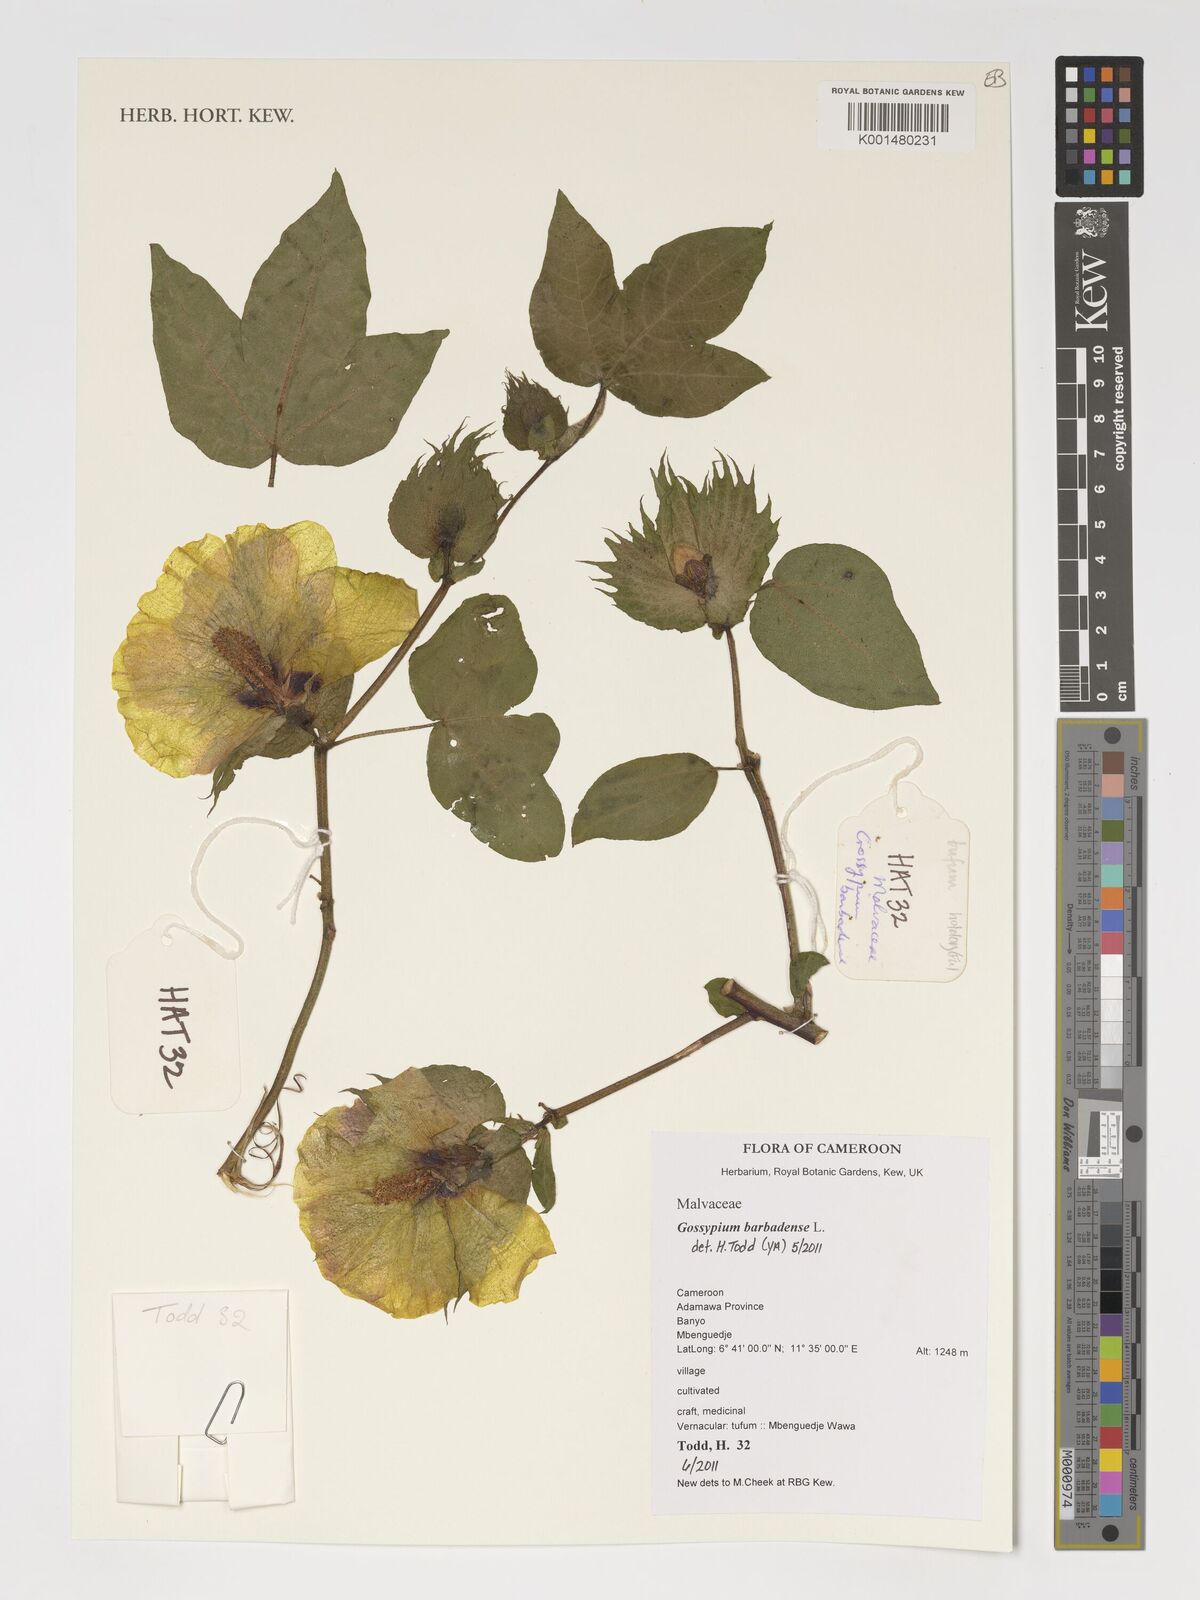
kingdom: Plantae
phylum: Tracheophyta
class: Magnoliopsida
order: Malvales
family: Malvaceae
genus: Gossypium
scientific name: Gossypium barbadense
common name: Creole cotton
